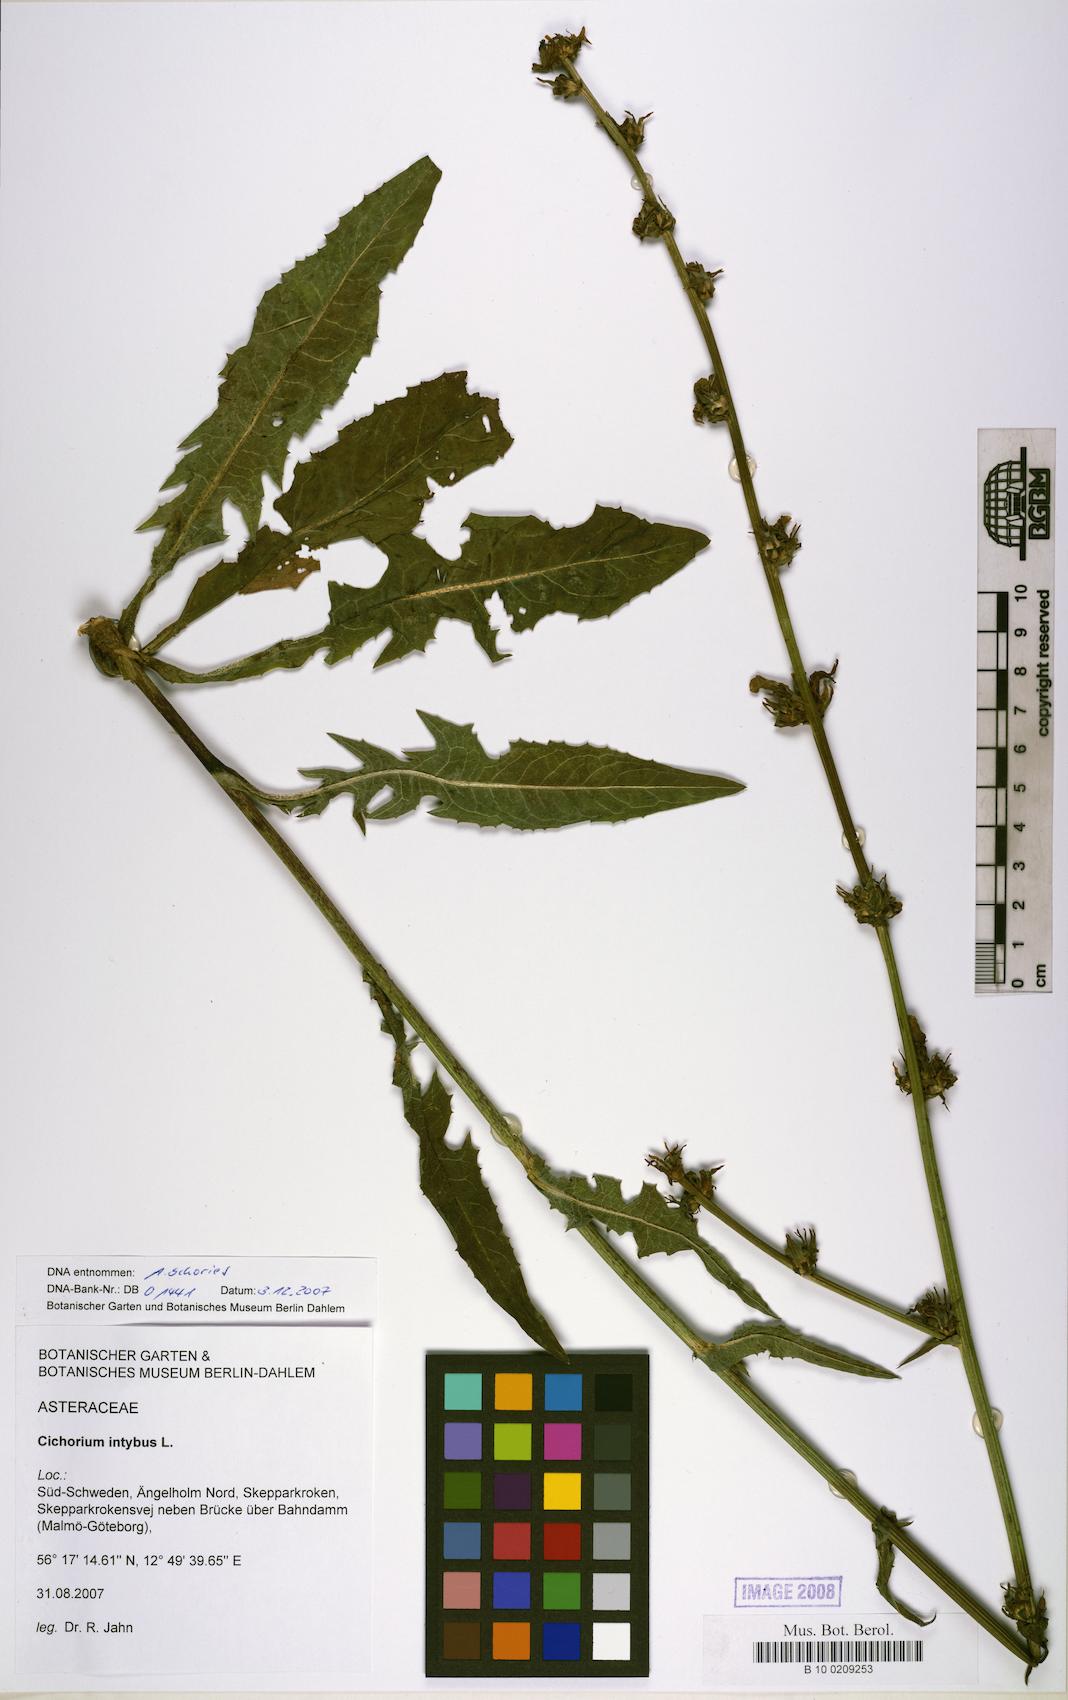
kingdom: Plantae
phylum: Tracheophyta
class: Magnoliopsida
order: Asterales
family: Asteraceae
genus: Cichorium
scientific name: Cichorium intybus
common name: Chicory
